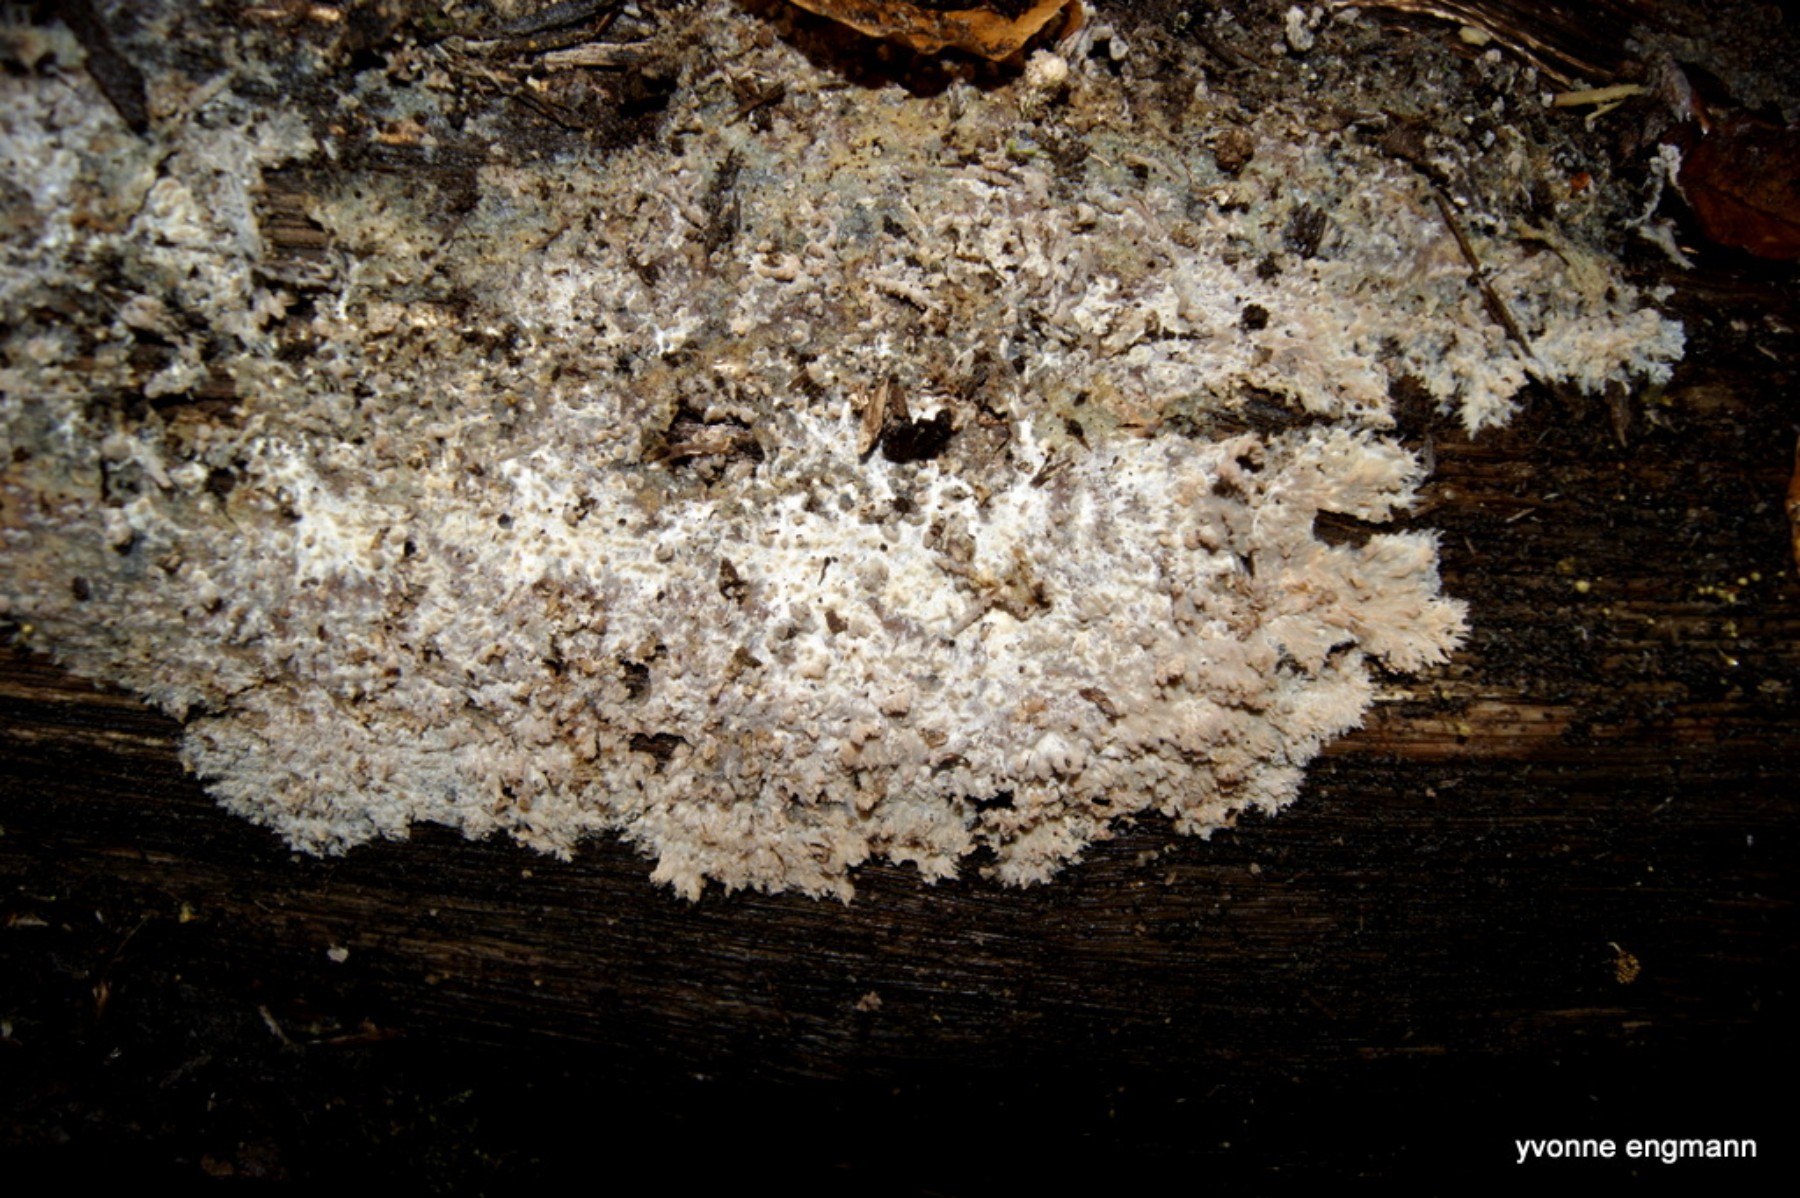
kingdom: Fungi
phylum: Basidiomycota
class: Agaricomycetes
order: Polyporales
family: Meruliaceae
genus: Phlebia
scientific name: Phlebia radiata
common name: stråle-åresvamp
